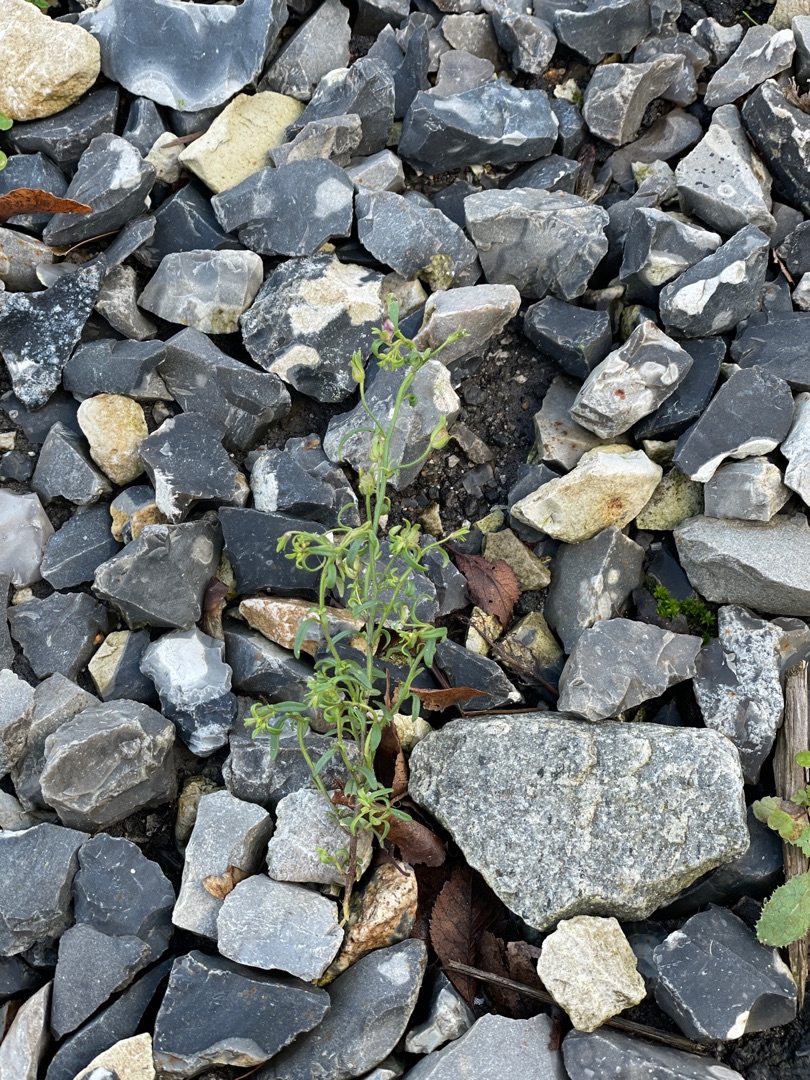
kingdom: Plantae
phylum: Tracheophyta
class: Magnoliopsida
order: Lamiales
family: Plantaginaceae
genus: Chaenorhinum
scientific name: Chaenorhinum minus
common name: Liden torskemund
